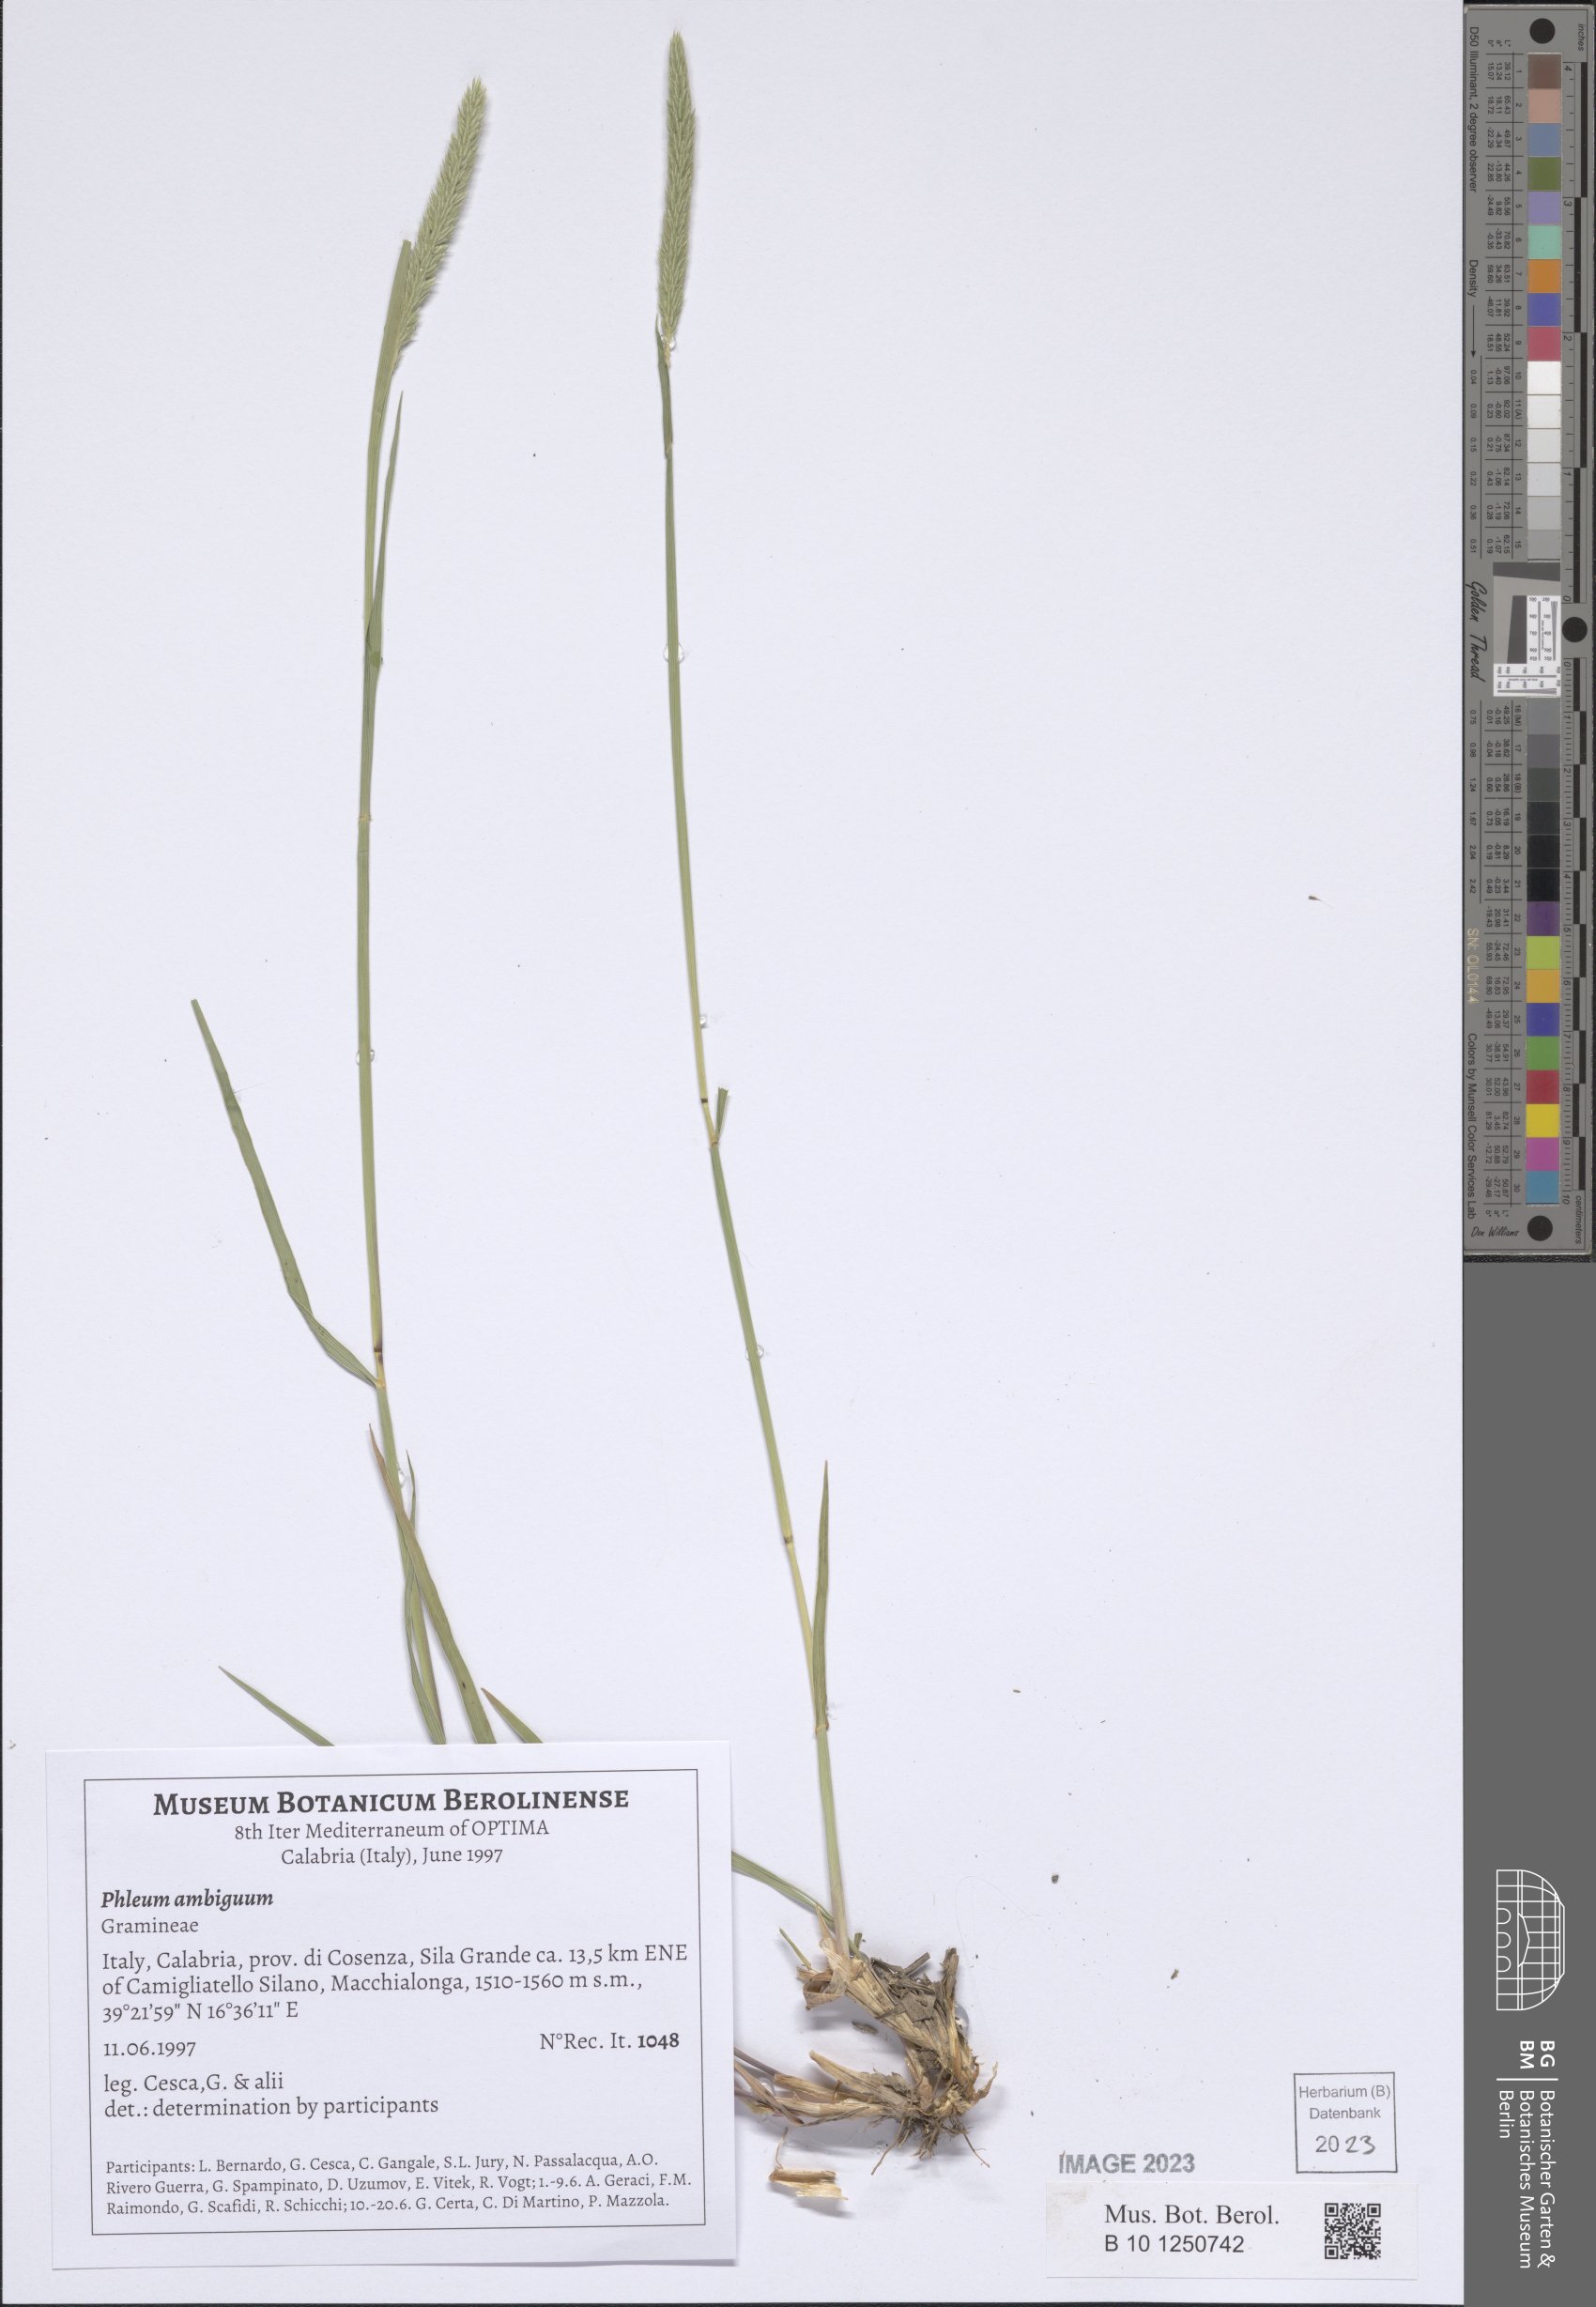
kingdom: Plantae
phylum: Tracheophyta
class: Liliopsida
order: Poales
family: Poaceae
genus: Phleum
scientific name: Phleum hirsutum
